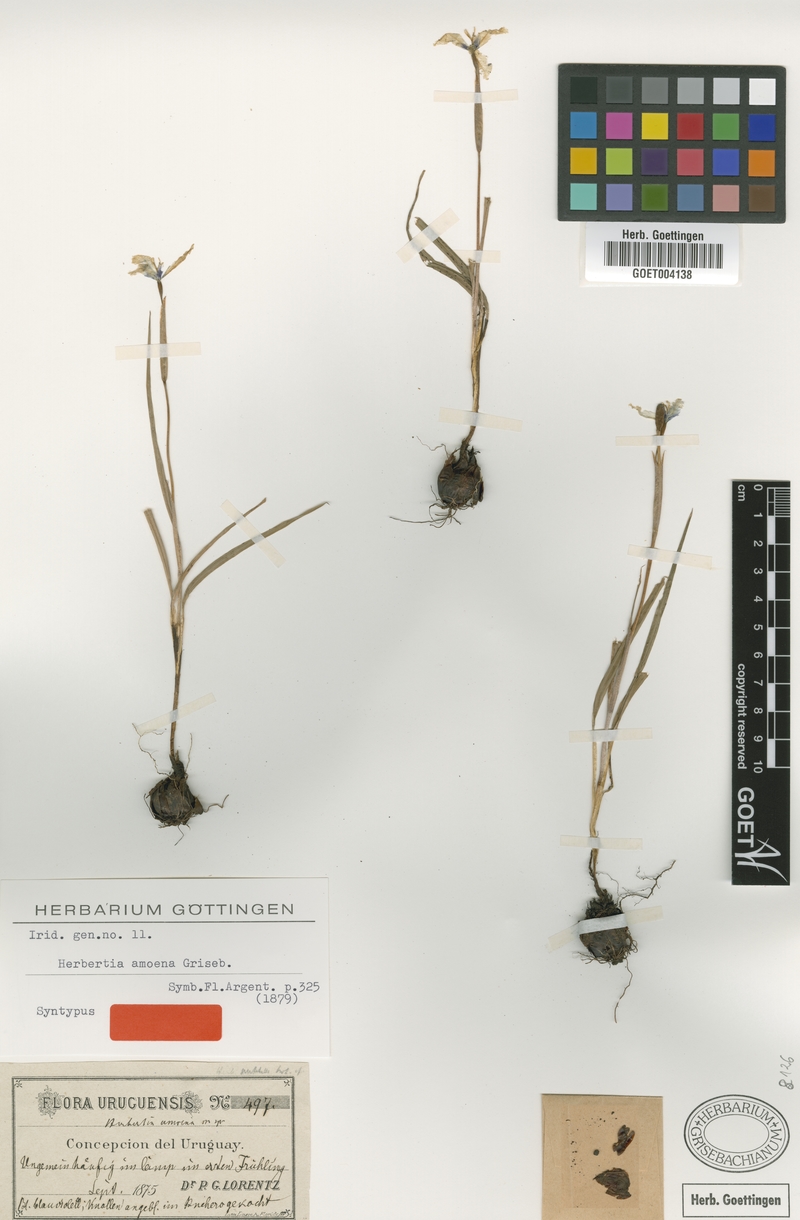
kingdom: Plantae
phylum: Tracheophyta
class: Liliopsida
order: Asparagales
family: Iridaceae
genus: Herbertia
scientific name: Herbertia lahue
